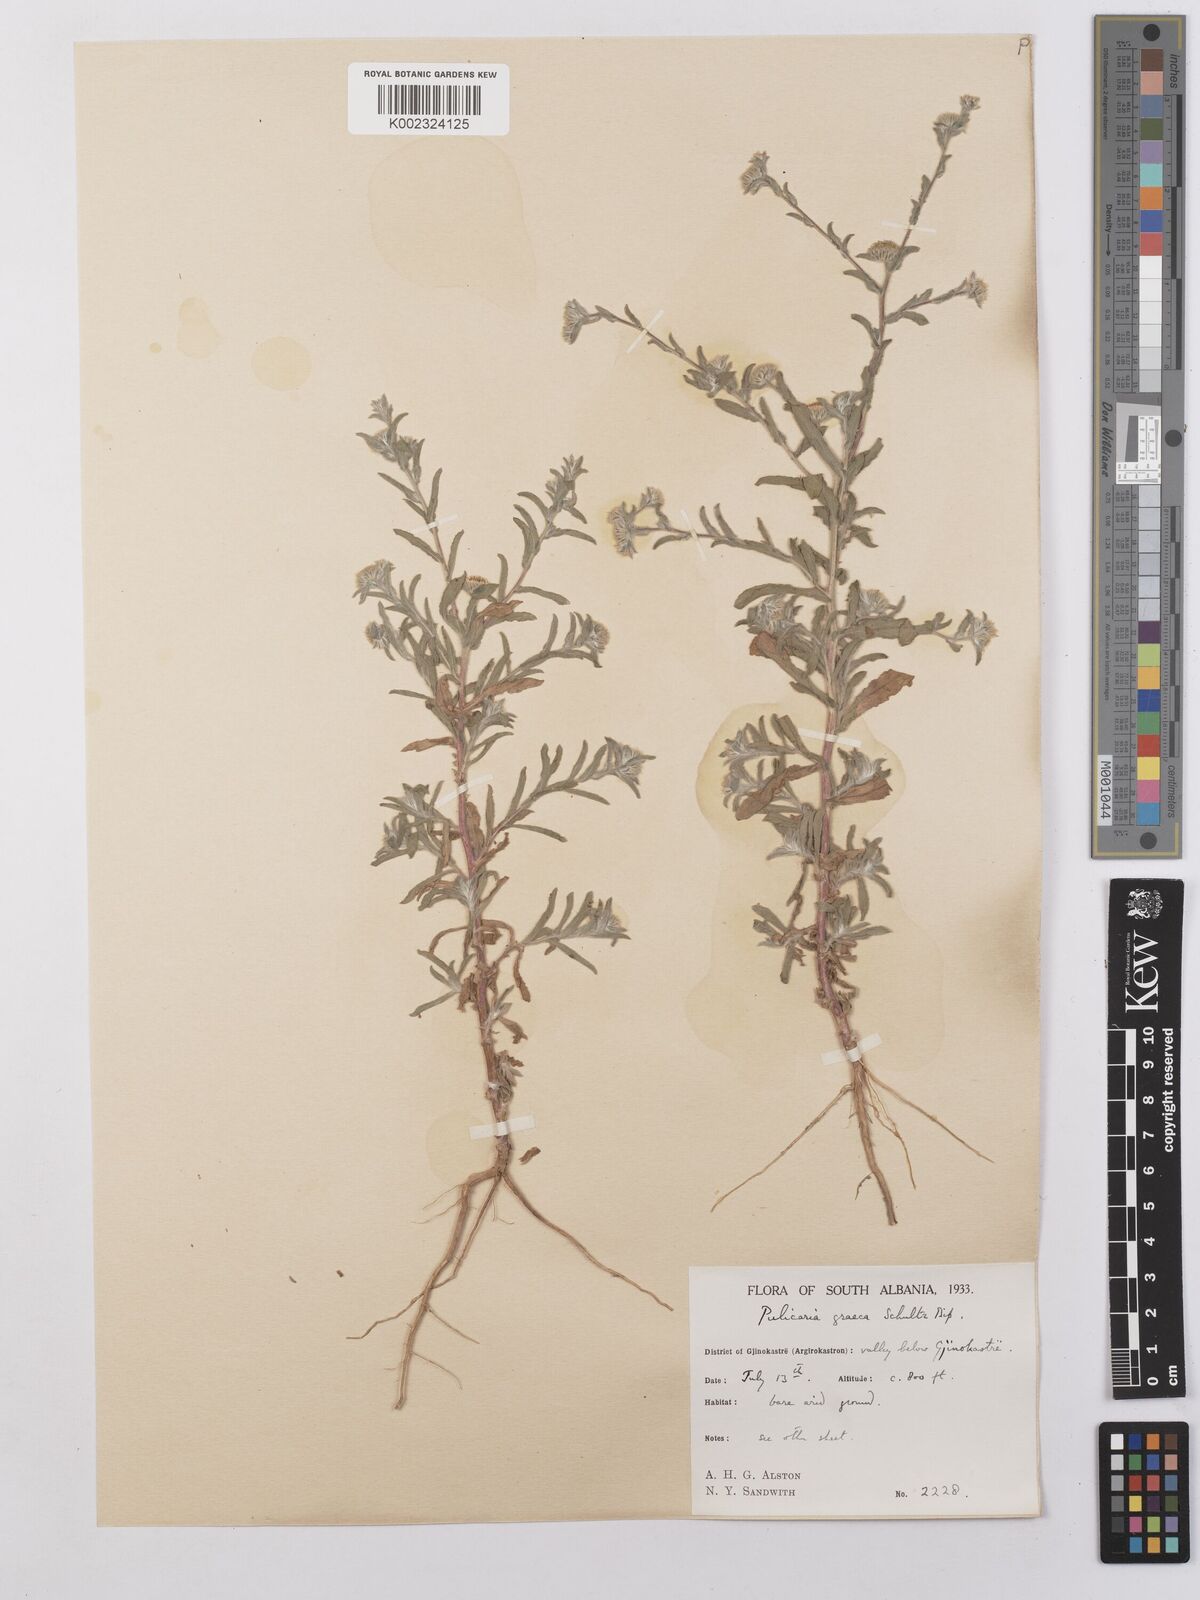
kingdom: Plantae
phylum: Tracheophyta
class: Magnoliopsida
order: Asterales
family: Asteraceae
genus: Pulicaria
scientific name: Pulicaria vulgaris
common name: Small fleabane
